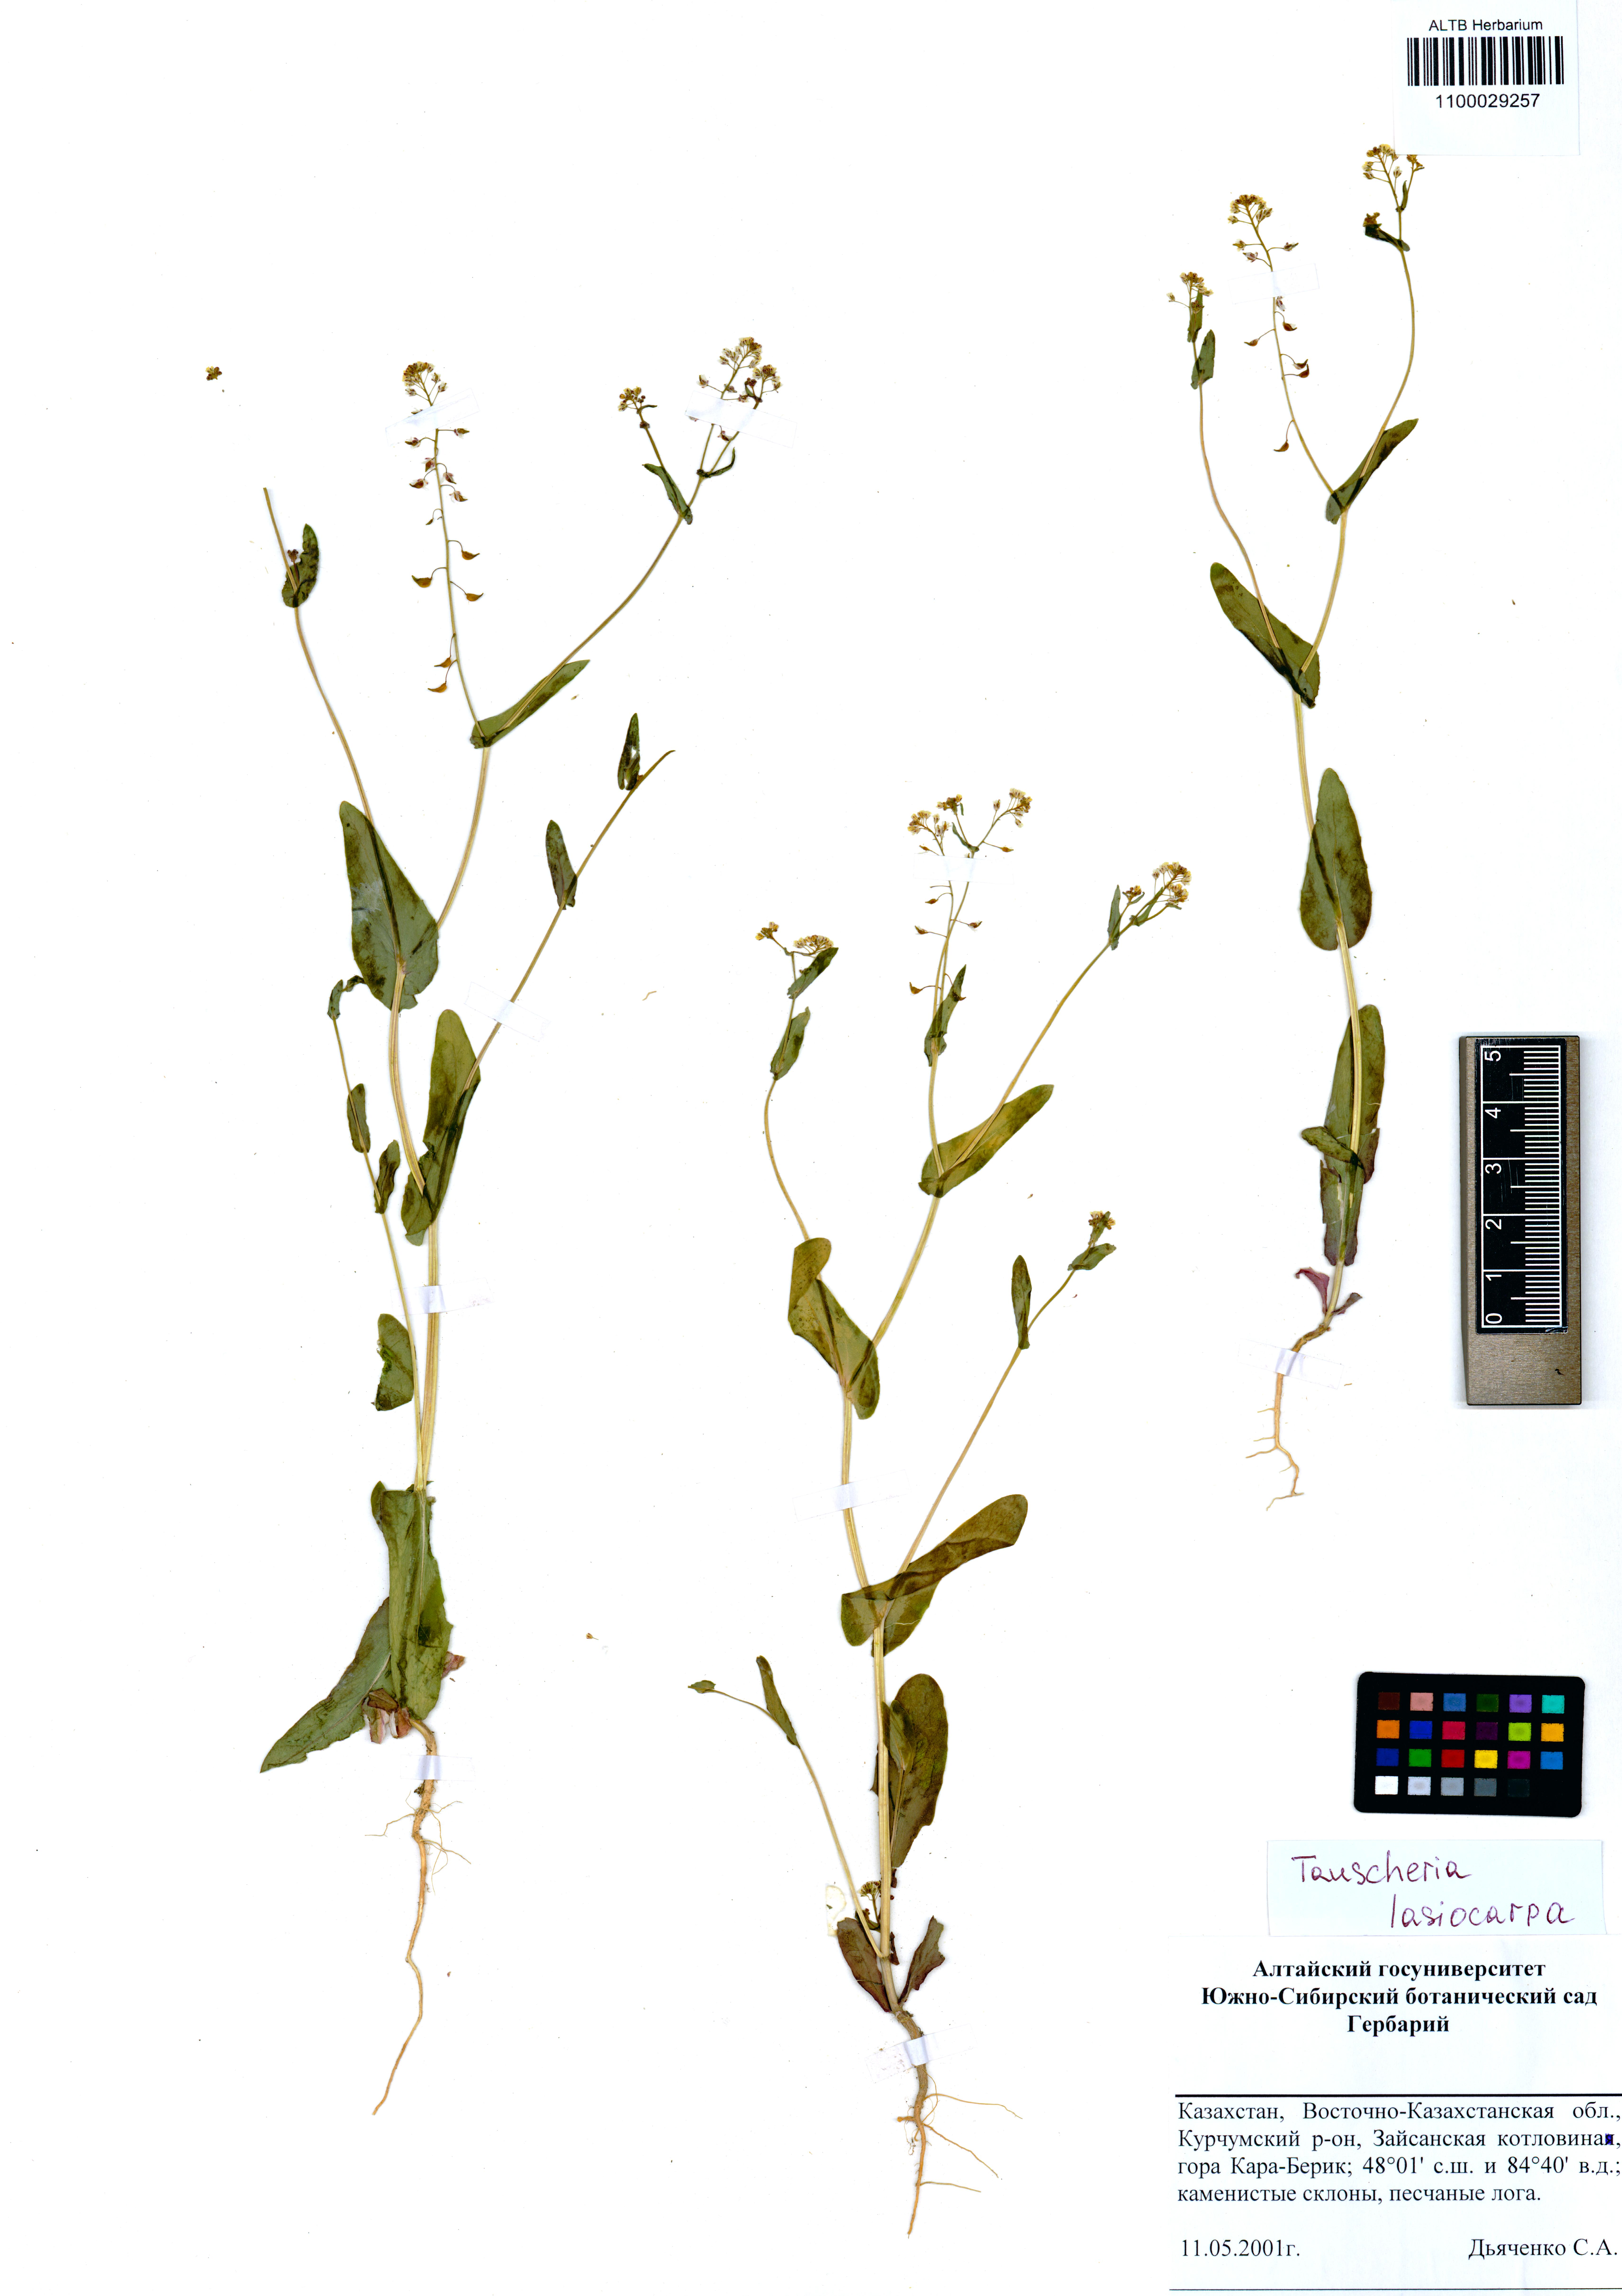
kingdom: Plantae
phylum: Tracheophyta
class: Magnoliopsida
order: Brassicales
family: Brassicaceae
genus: Tauscheria
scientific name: Tauscheria lasiocarpa
